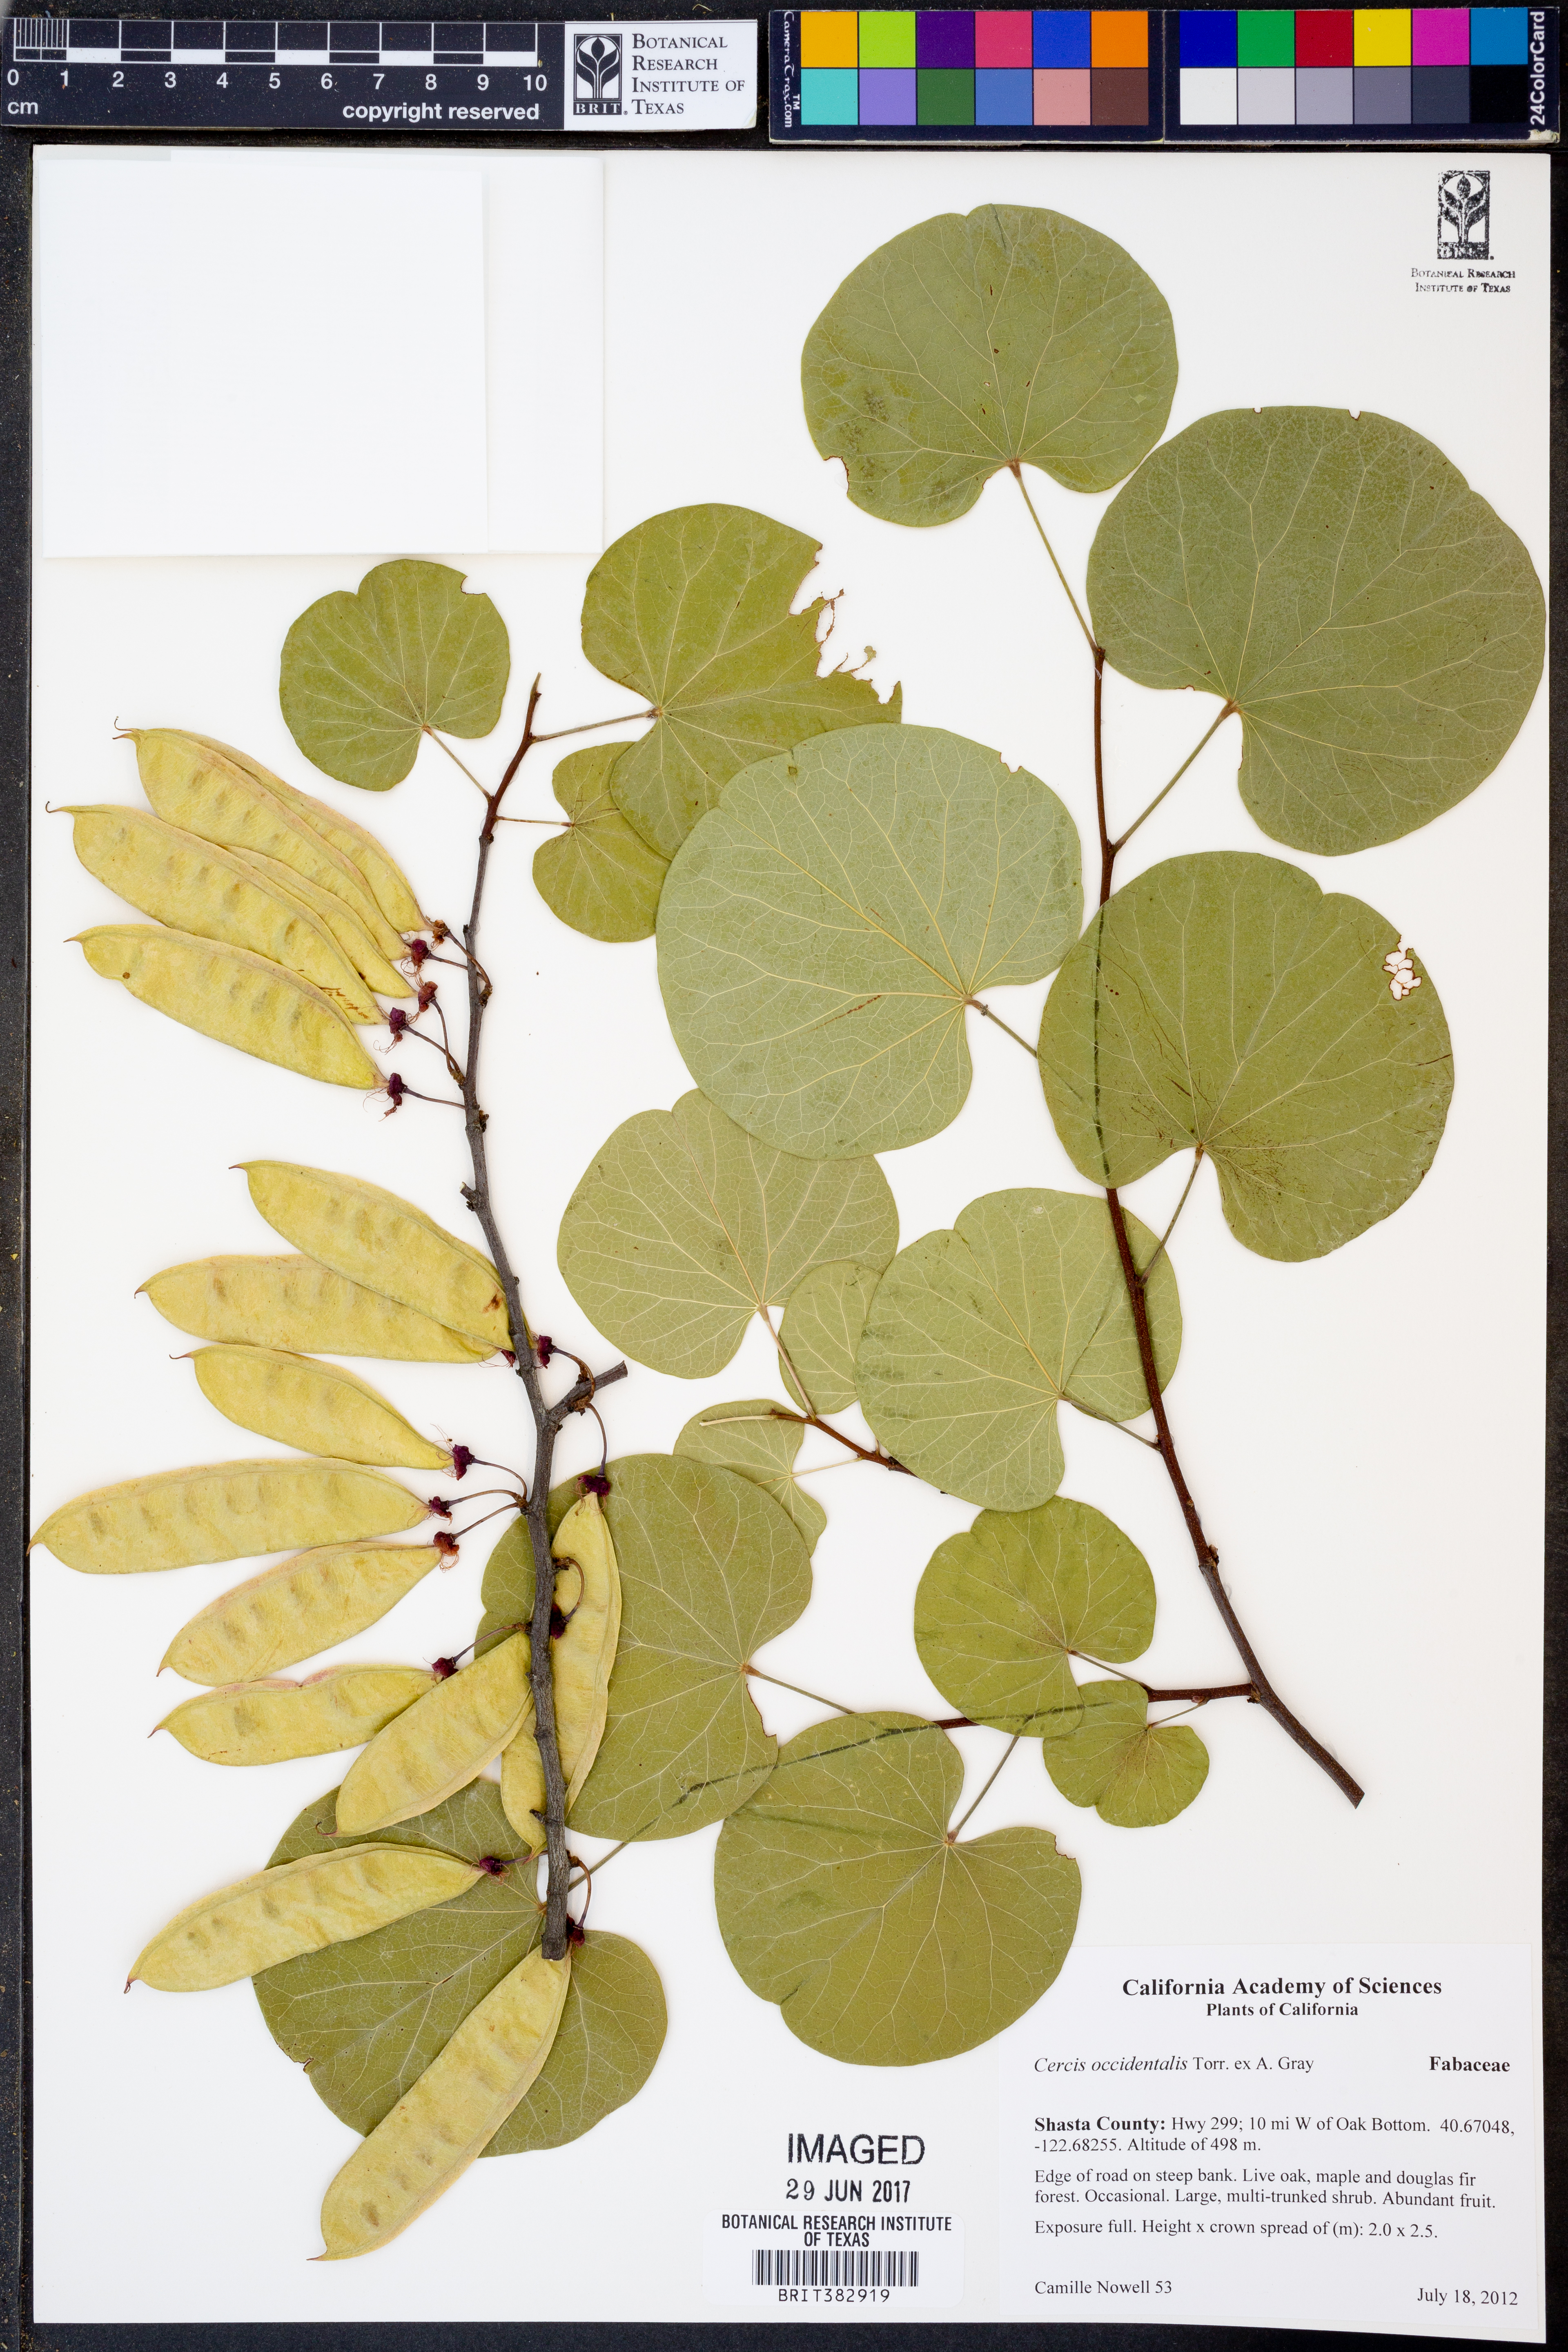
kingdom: Plantae
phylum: Tracheophyta
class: Magnoliopsida
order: Fabales
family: Fabaceae
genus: Cercis
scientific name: Cercis occidentalis
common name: California redbud
